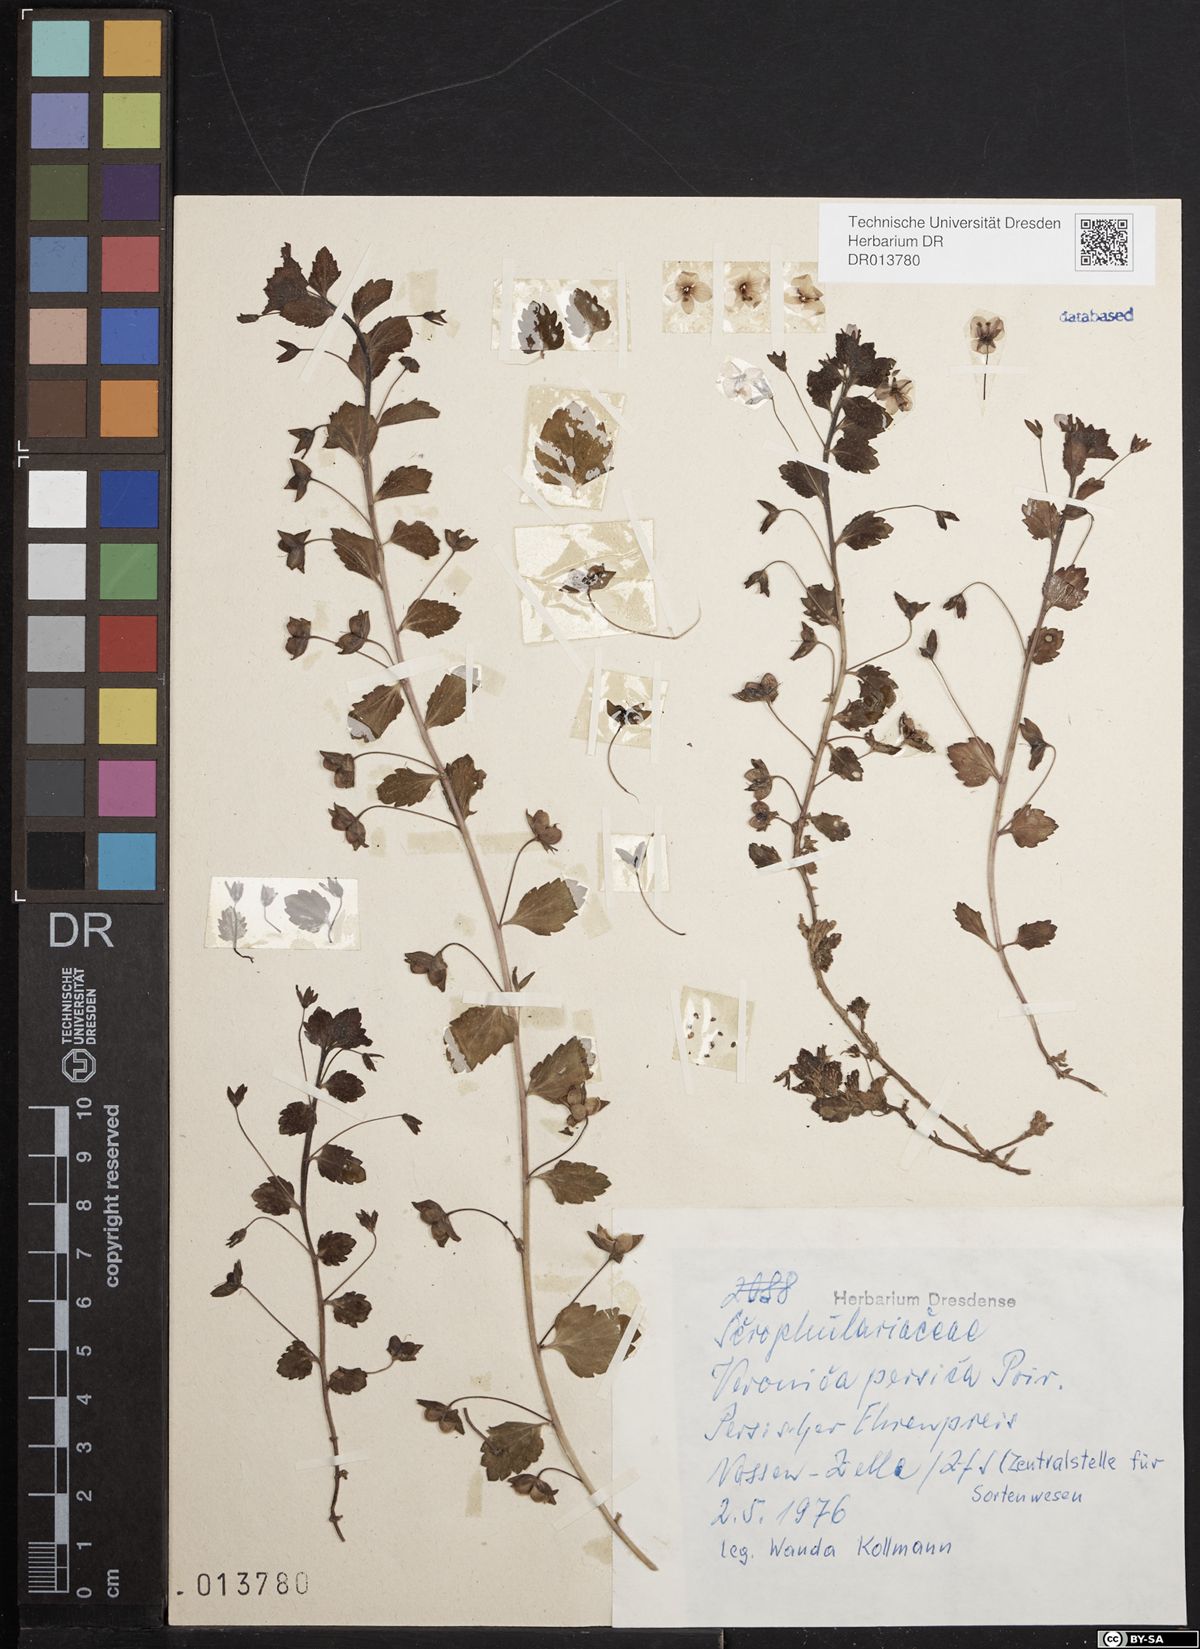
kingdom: Plantae
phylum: Tracheophyta
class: Magnoliopsida
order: Lamiales
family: Plantaginaceae
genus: Veronica
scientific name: Veronica persica
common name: Common field-speedwell
